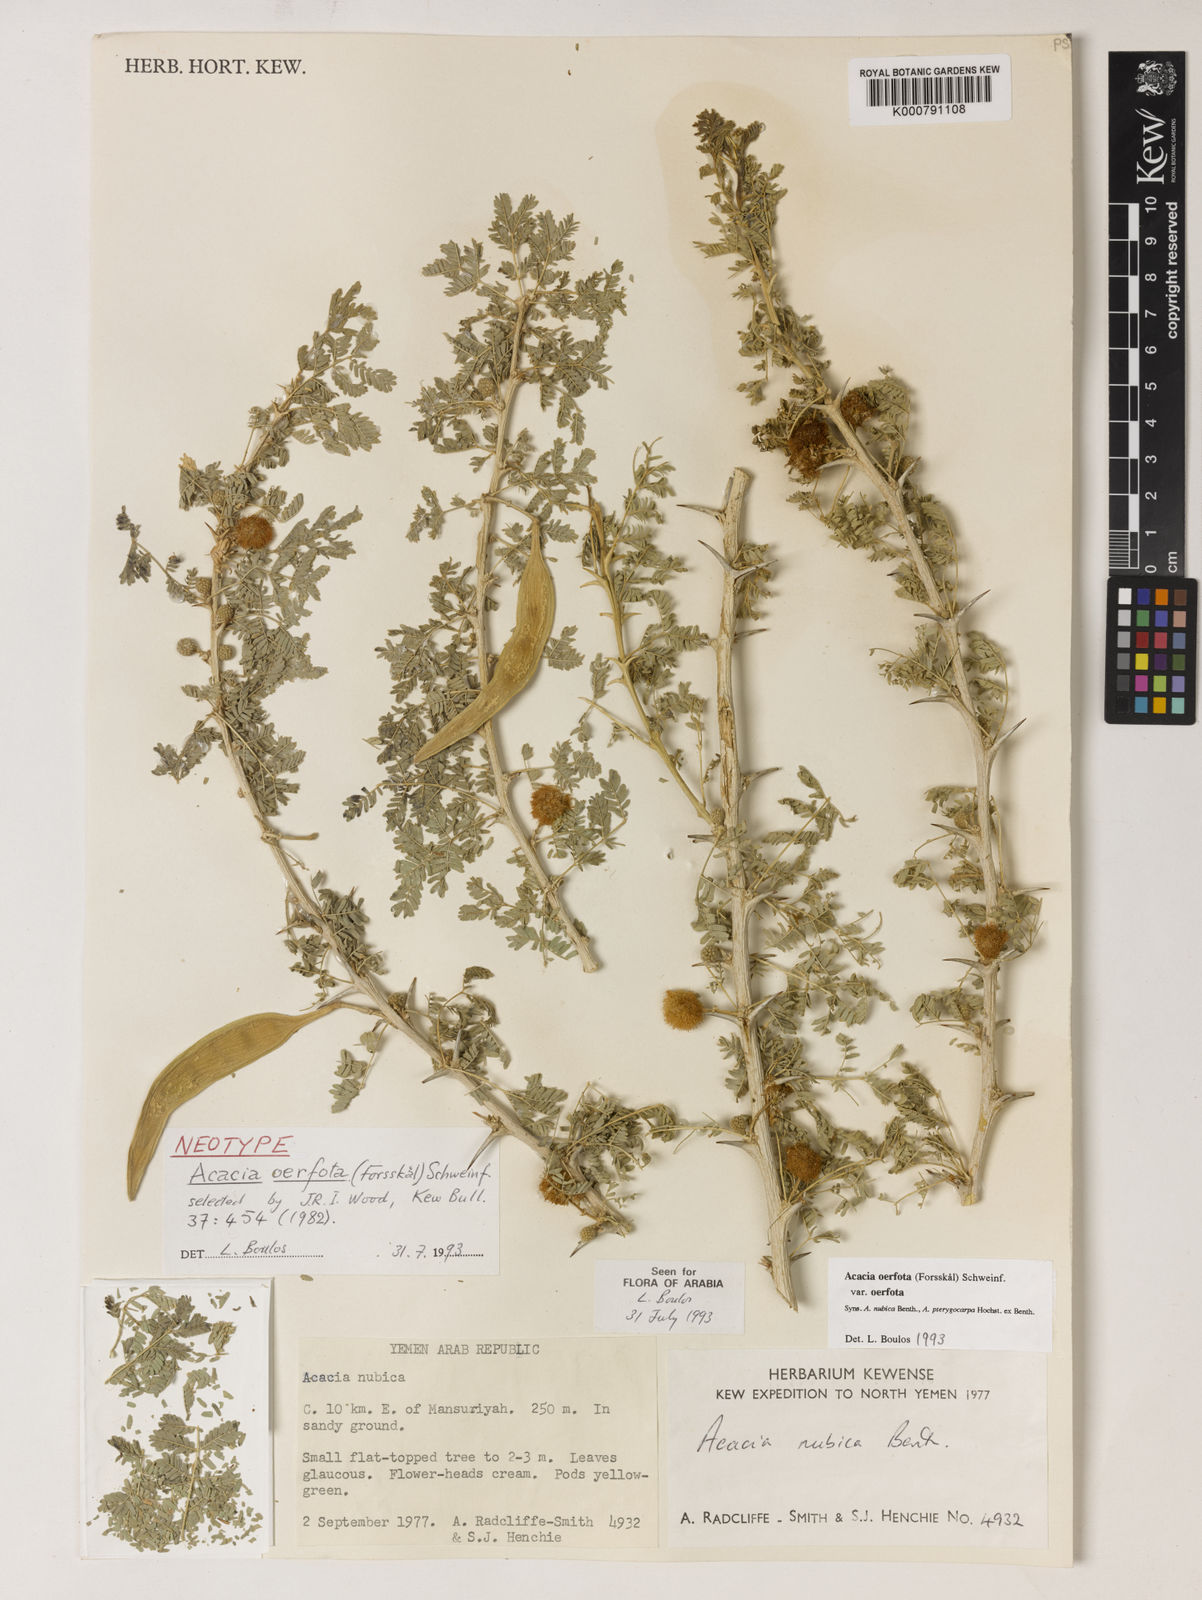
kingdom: Plantae
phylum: Tracheophyta
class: Magnoliopsida
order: Fabales
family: Fabaceae
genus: Acacia
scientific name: Acacia
